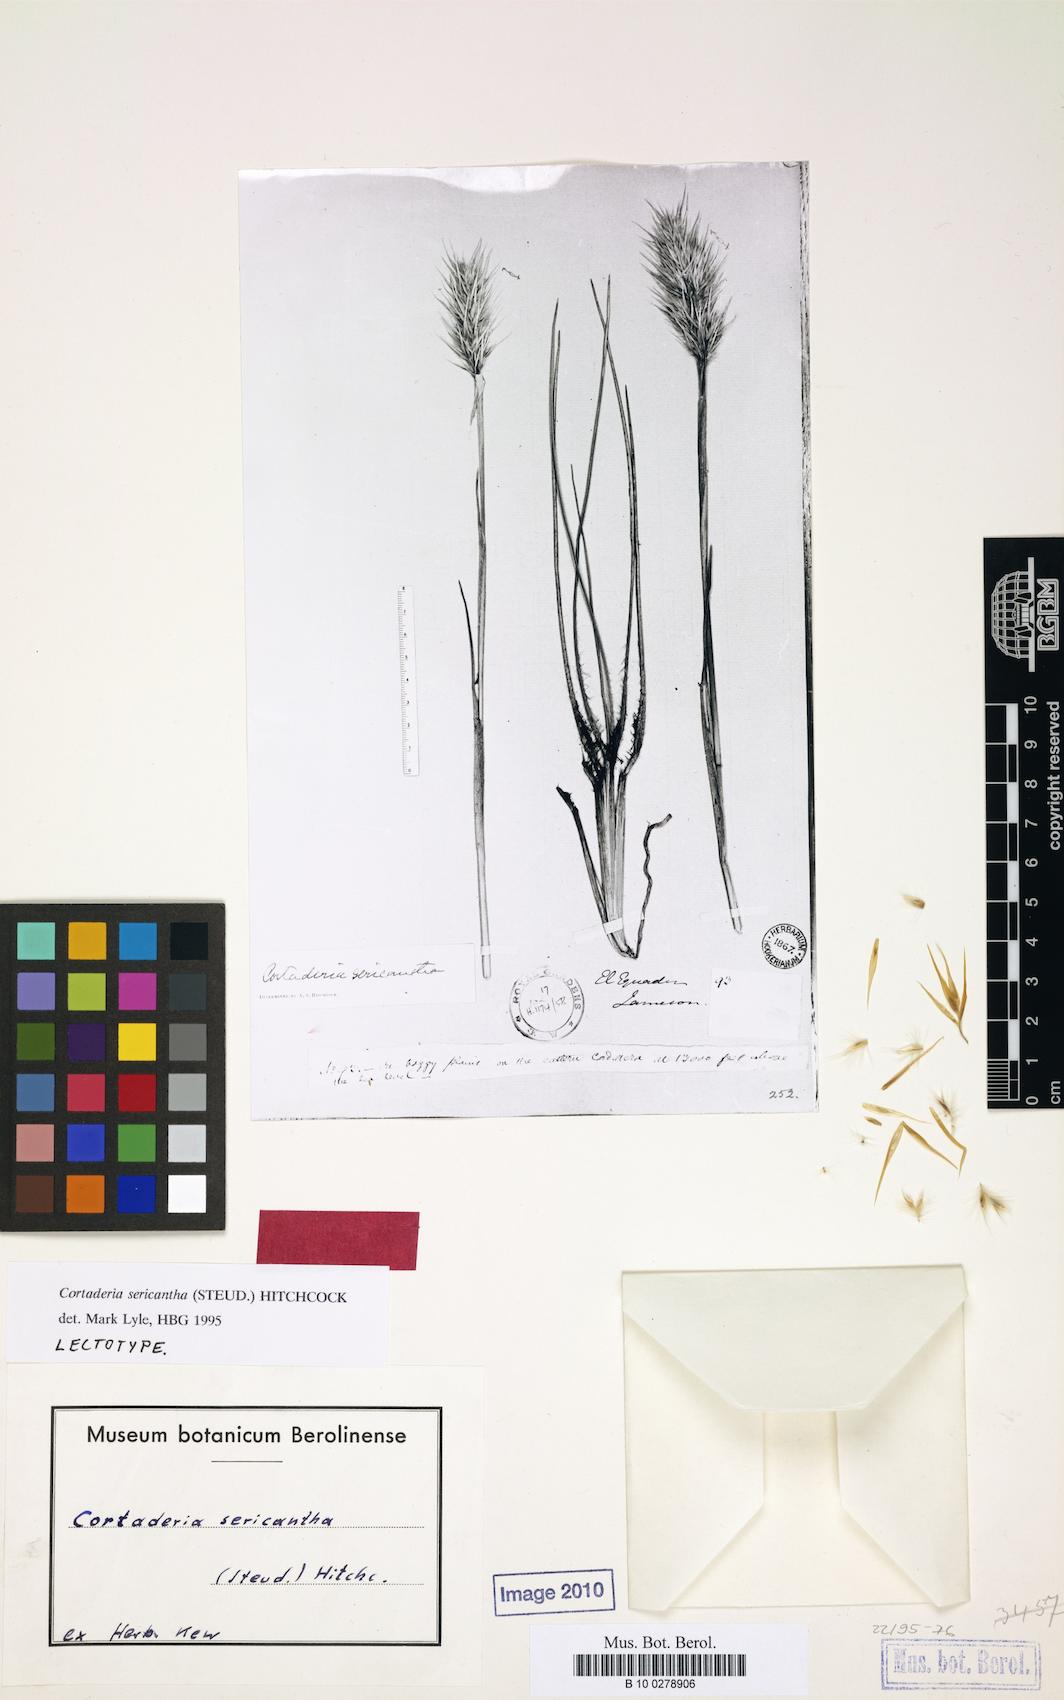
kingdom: Plantae
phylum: Tracheophyta
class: Liliopsida
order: Poales
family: Poaceae
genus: Cortaderia
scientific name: Cortaderia sericantha
